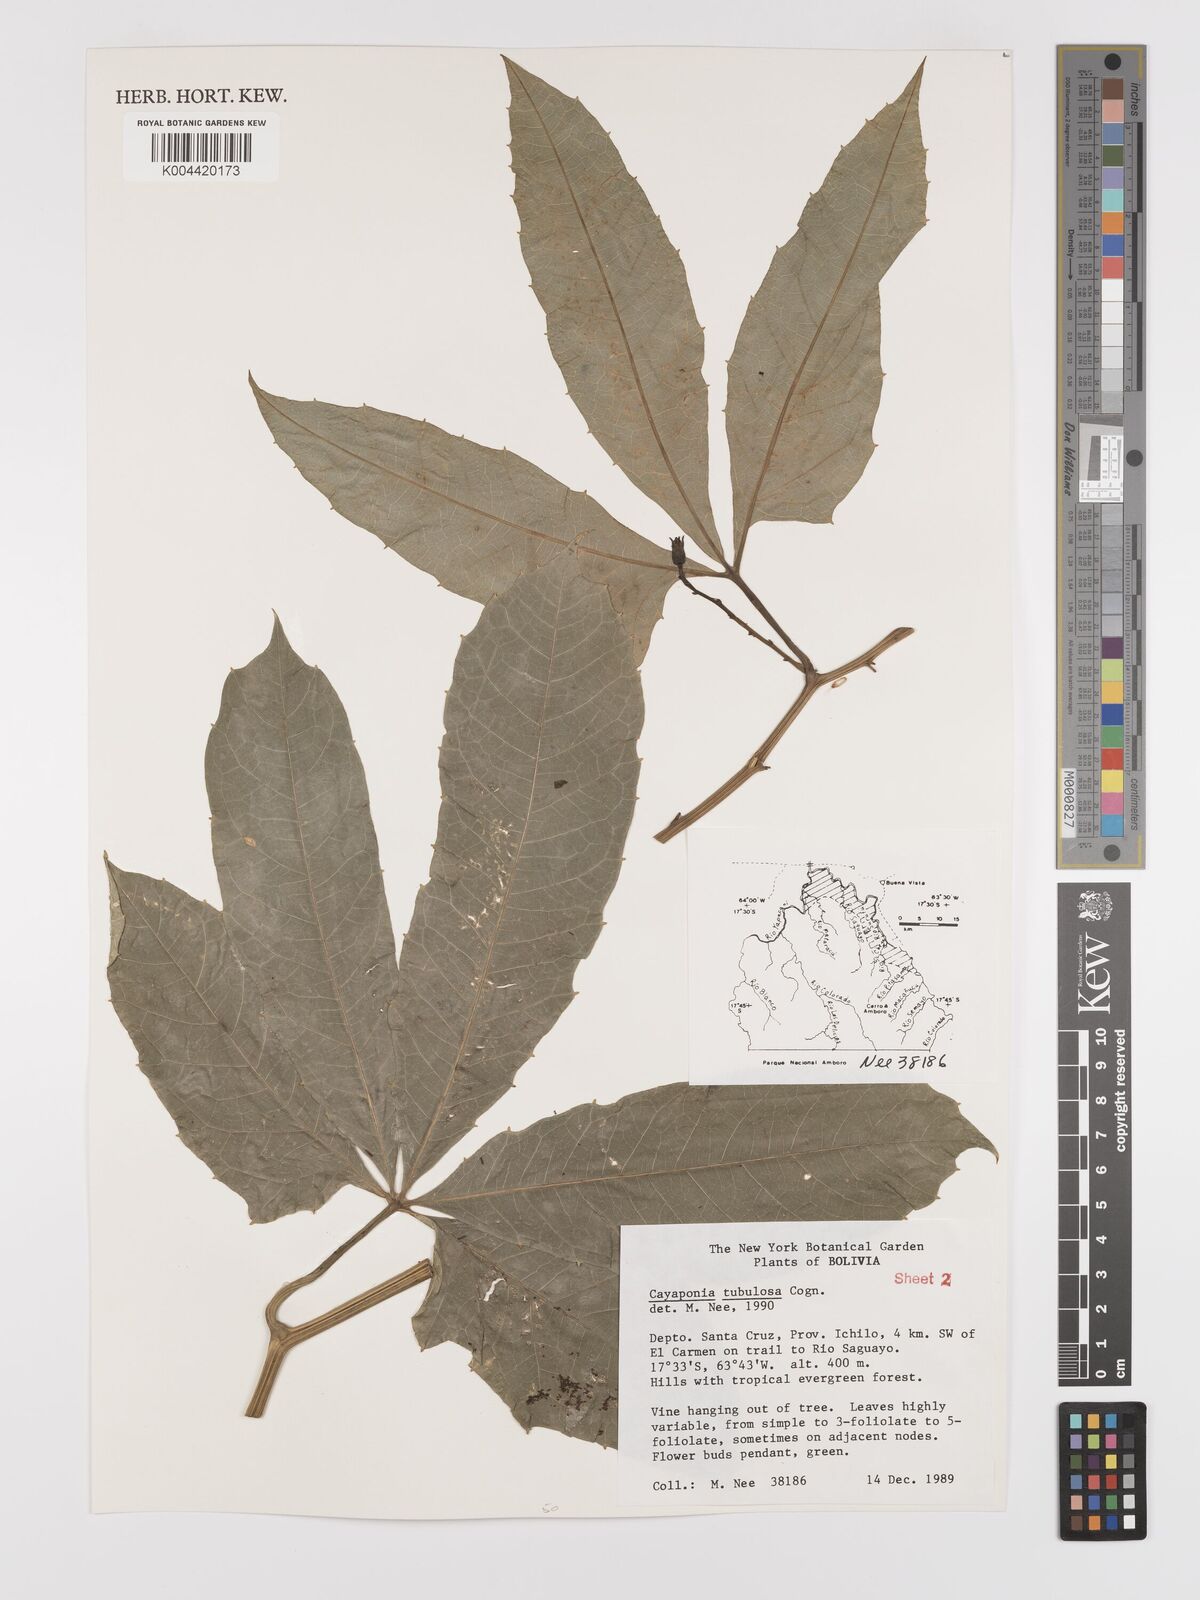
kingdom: Plantae
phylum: Tracheophyta
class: Magnoliopsida
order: Cucurbitales
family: Cucurbitaceae
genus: Cayaponia
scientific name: Cayaponia tubulosa
